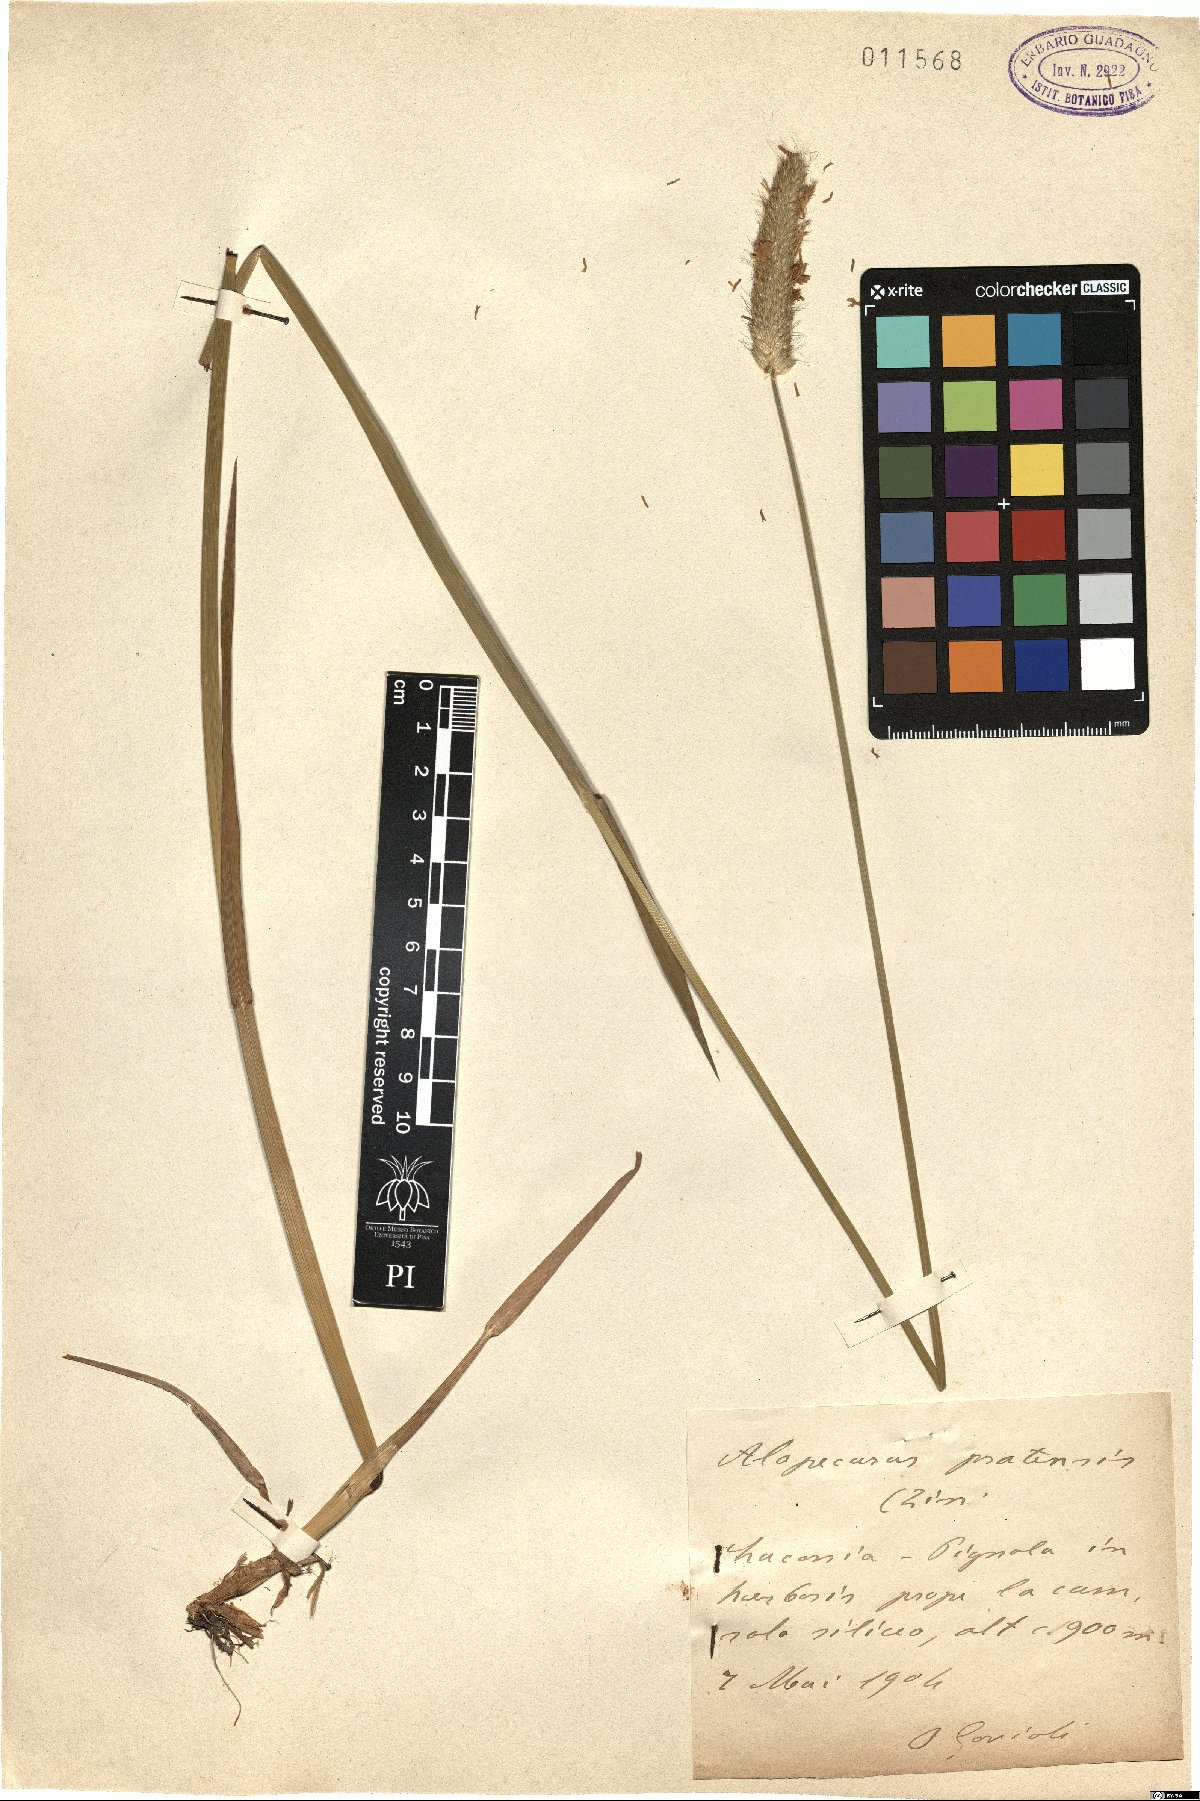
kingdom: Plantae
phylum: Tracheophyta
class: Liliopsida
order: Poales
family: Poaceae
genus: Alopecurus
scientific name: Alopecurus pratensis
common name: Meadow foxtail
